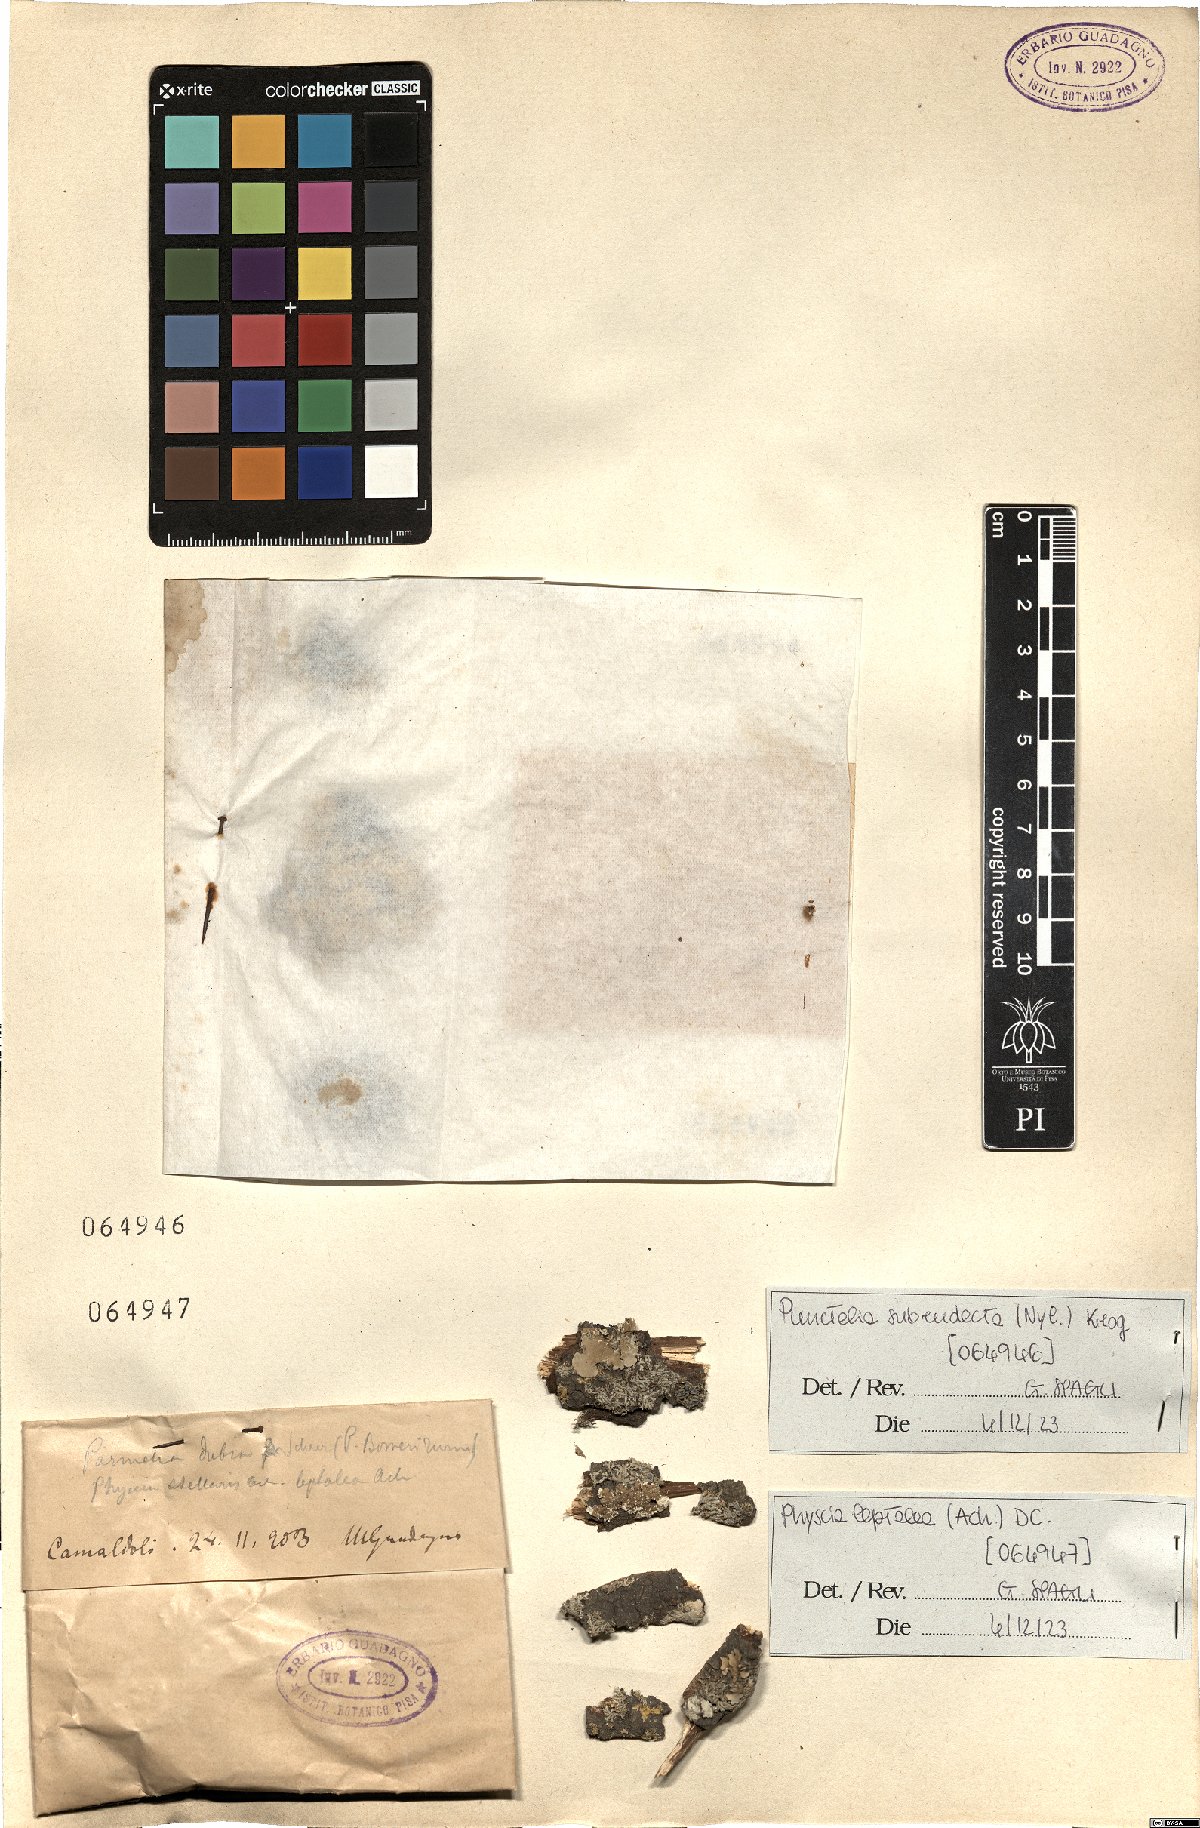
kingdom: Fungi
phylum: Ascomycota
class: Lecanoromycetes
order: Caliciales
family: Physciaceae
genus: Physcia
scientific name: Physcia leptalea
